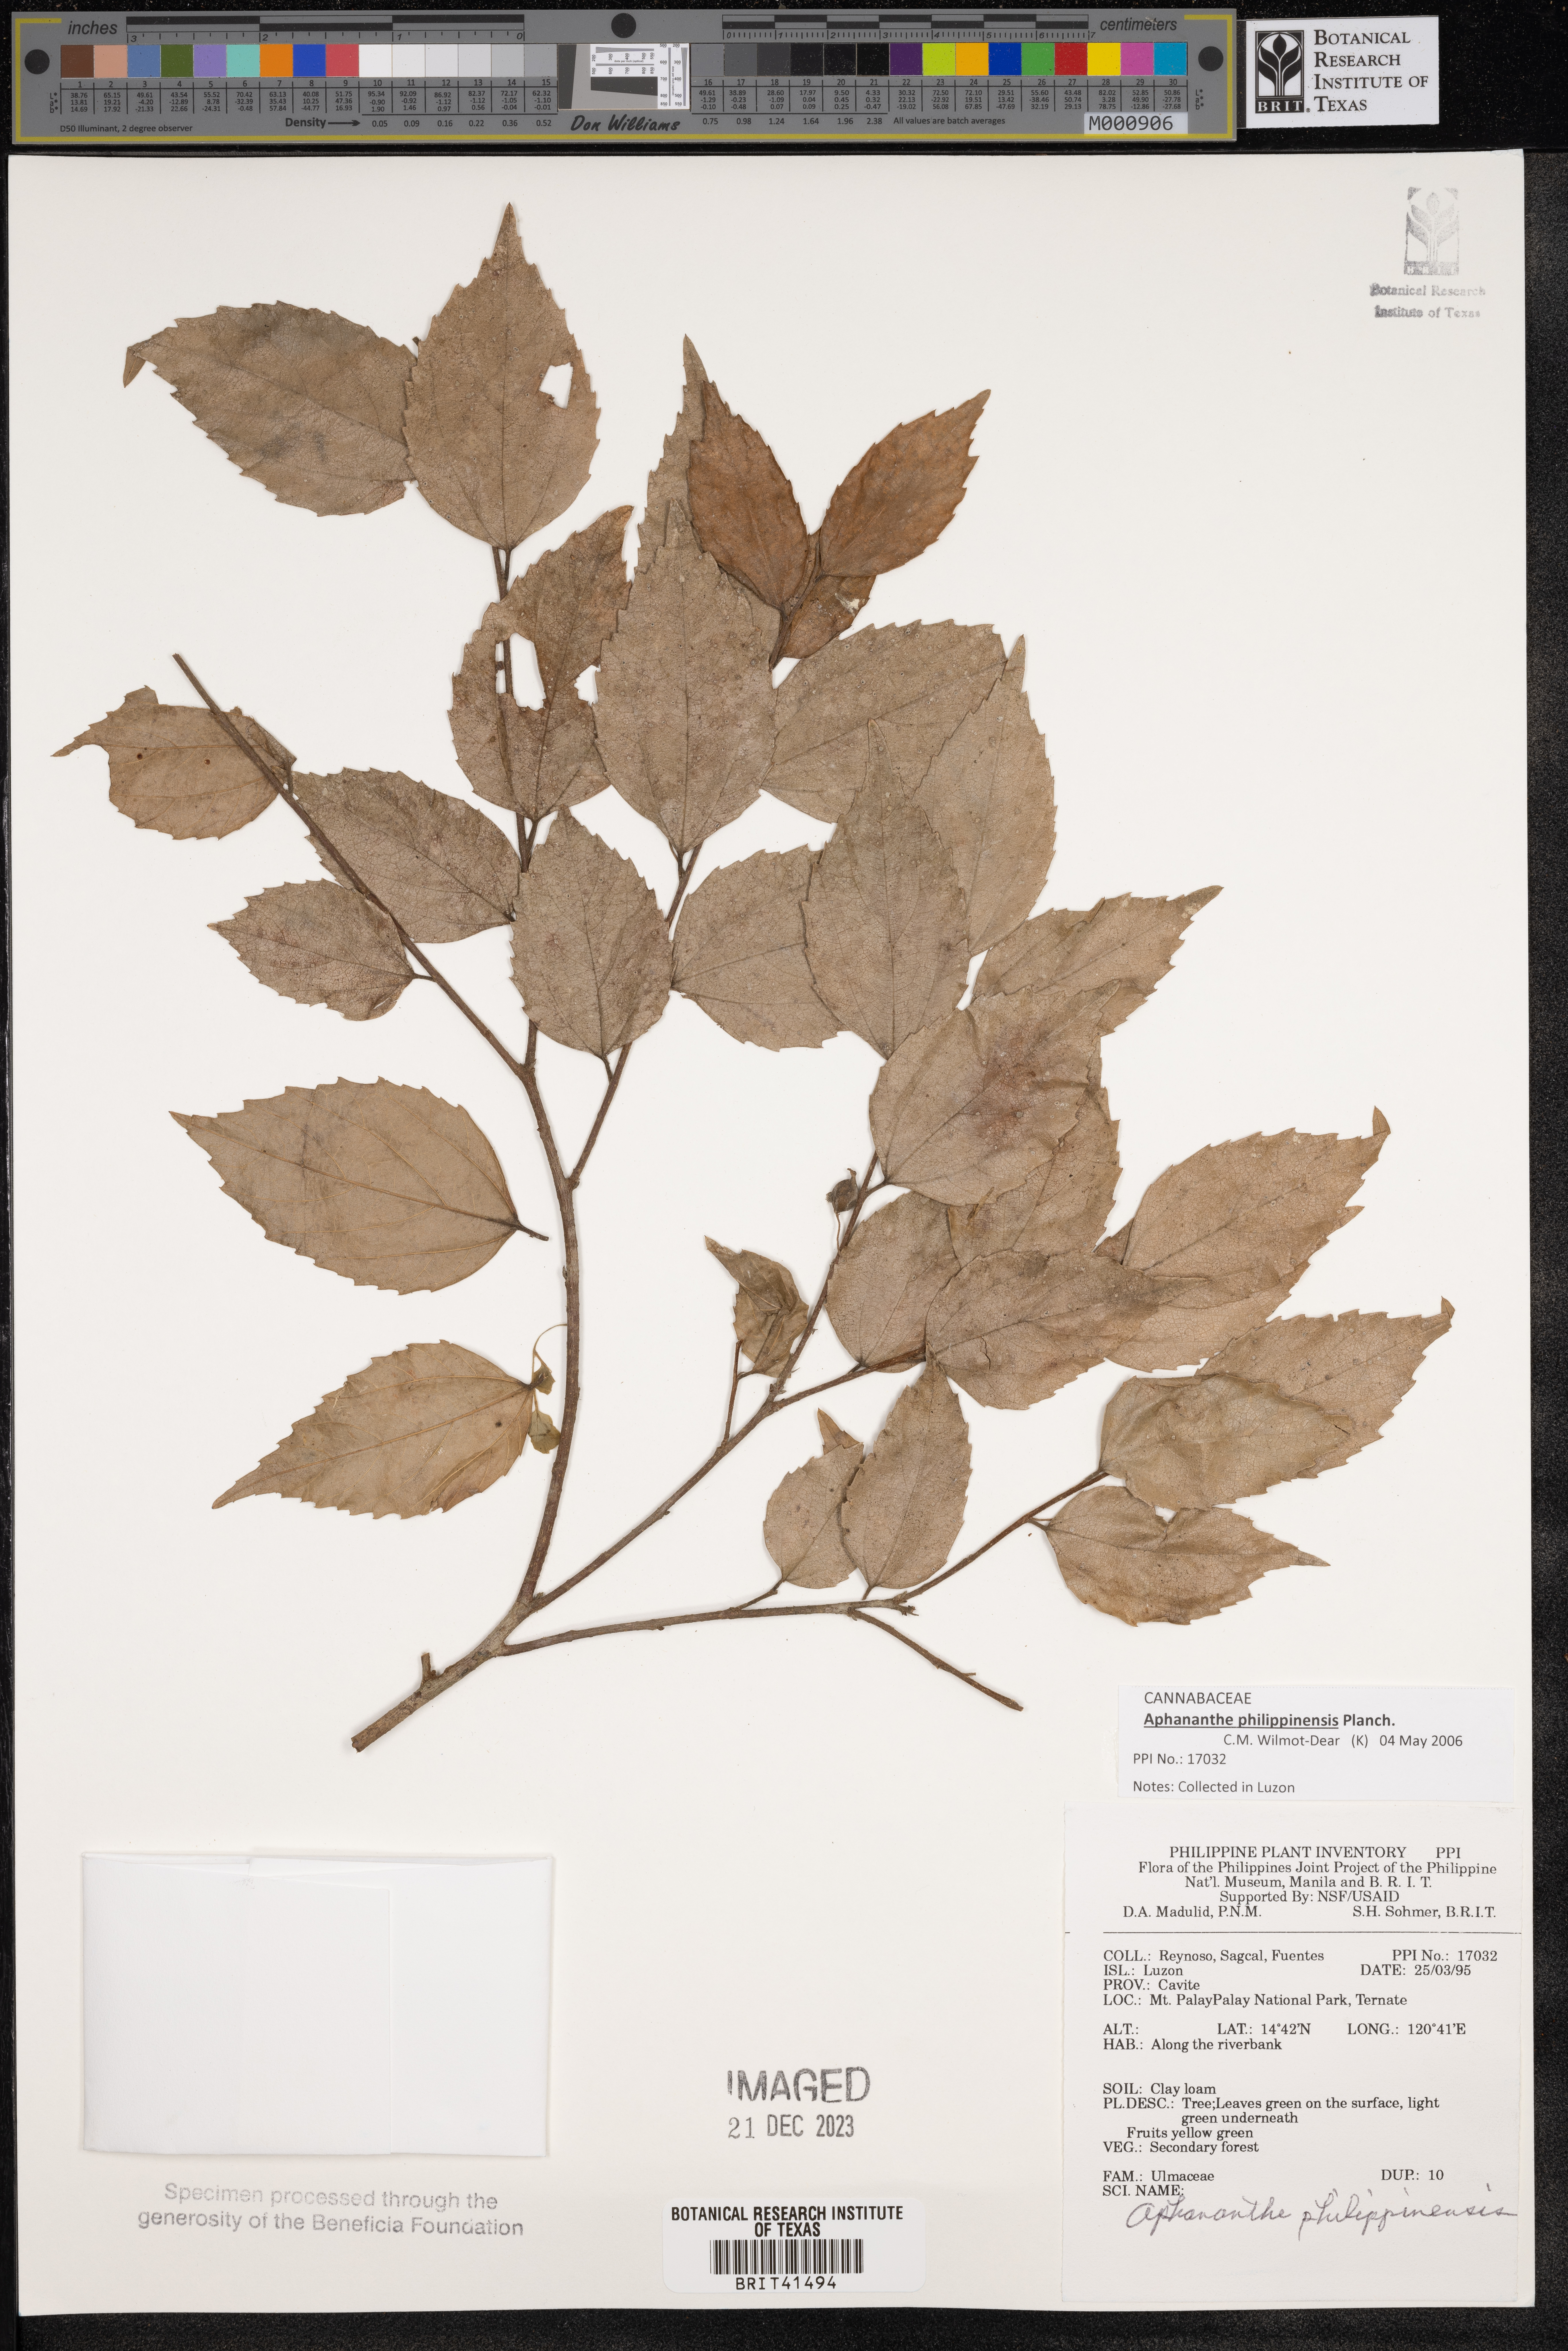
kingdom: Plantae
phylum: Tracheophyta
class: Magnoliopsida
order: Rosales
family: Cannabaceae
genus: Aphananthe
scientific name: Aphananthe philippinensis
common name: Wild holly
